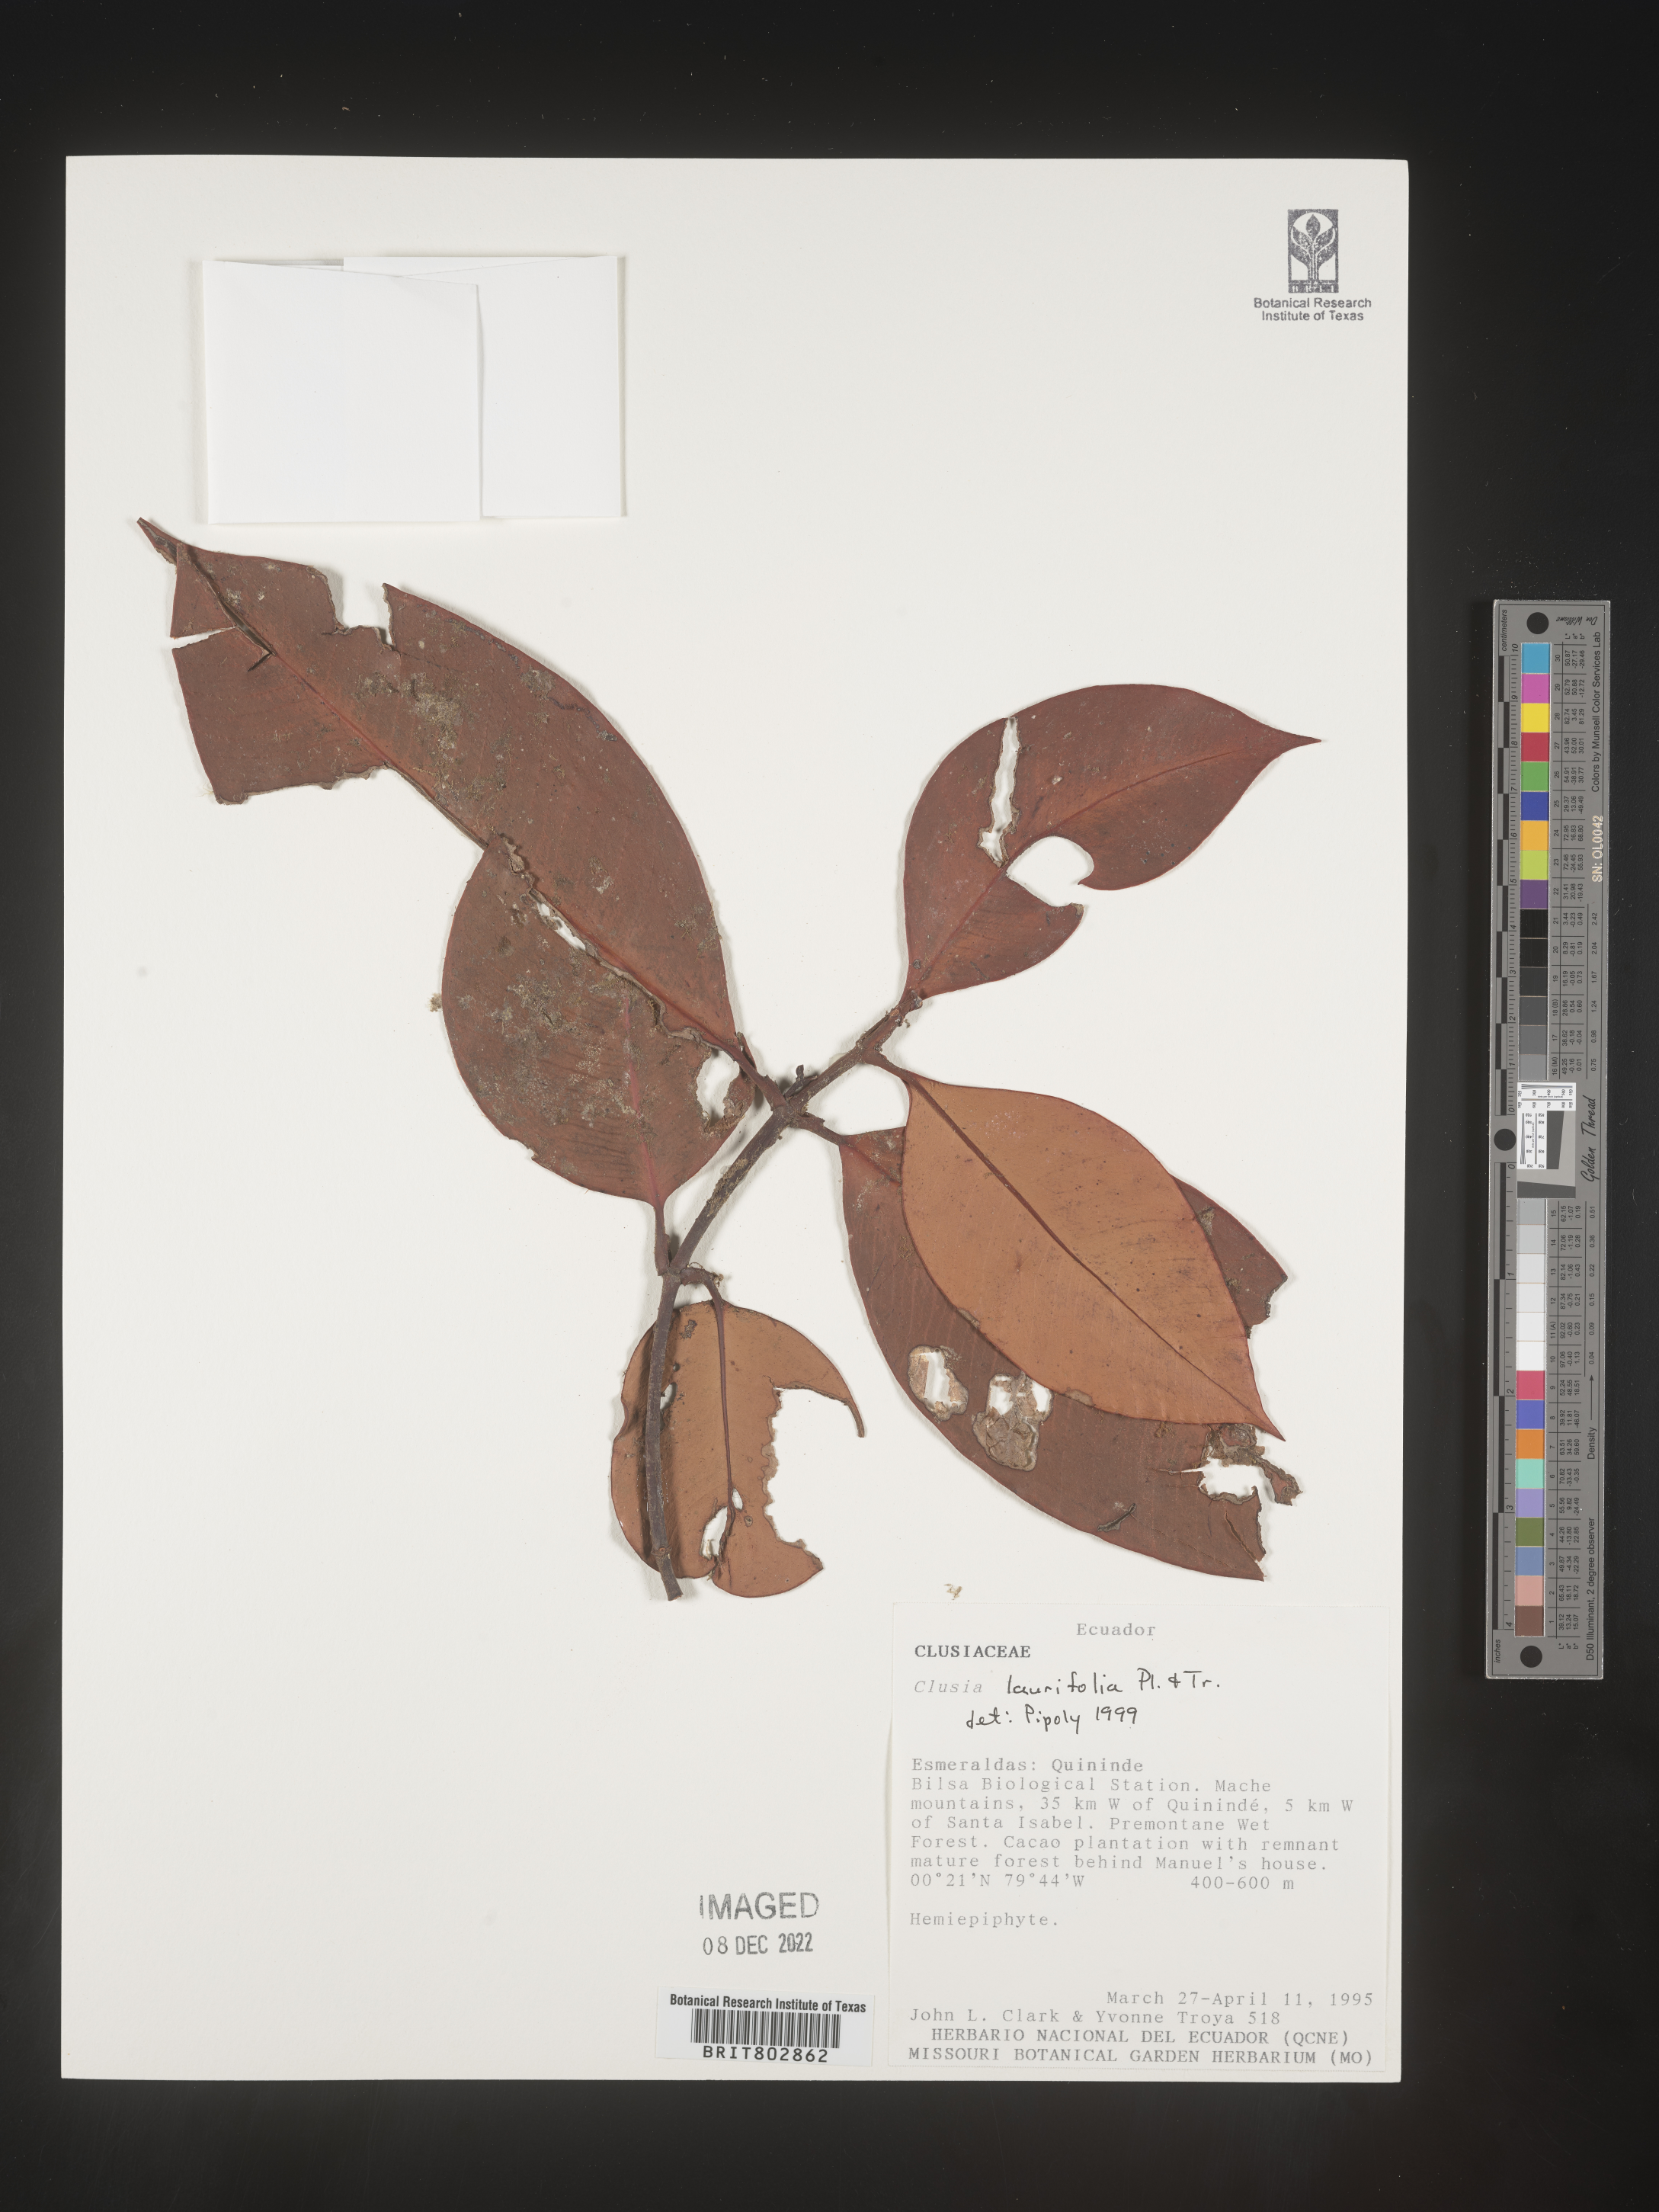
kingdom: Plantae
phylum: Tracheophyta
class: Magnoliopsida
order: Malpighiales
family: Clusiaceae
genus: Clusia
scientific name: Clusia
